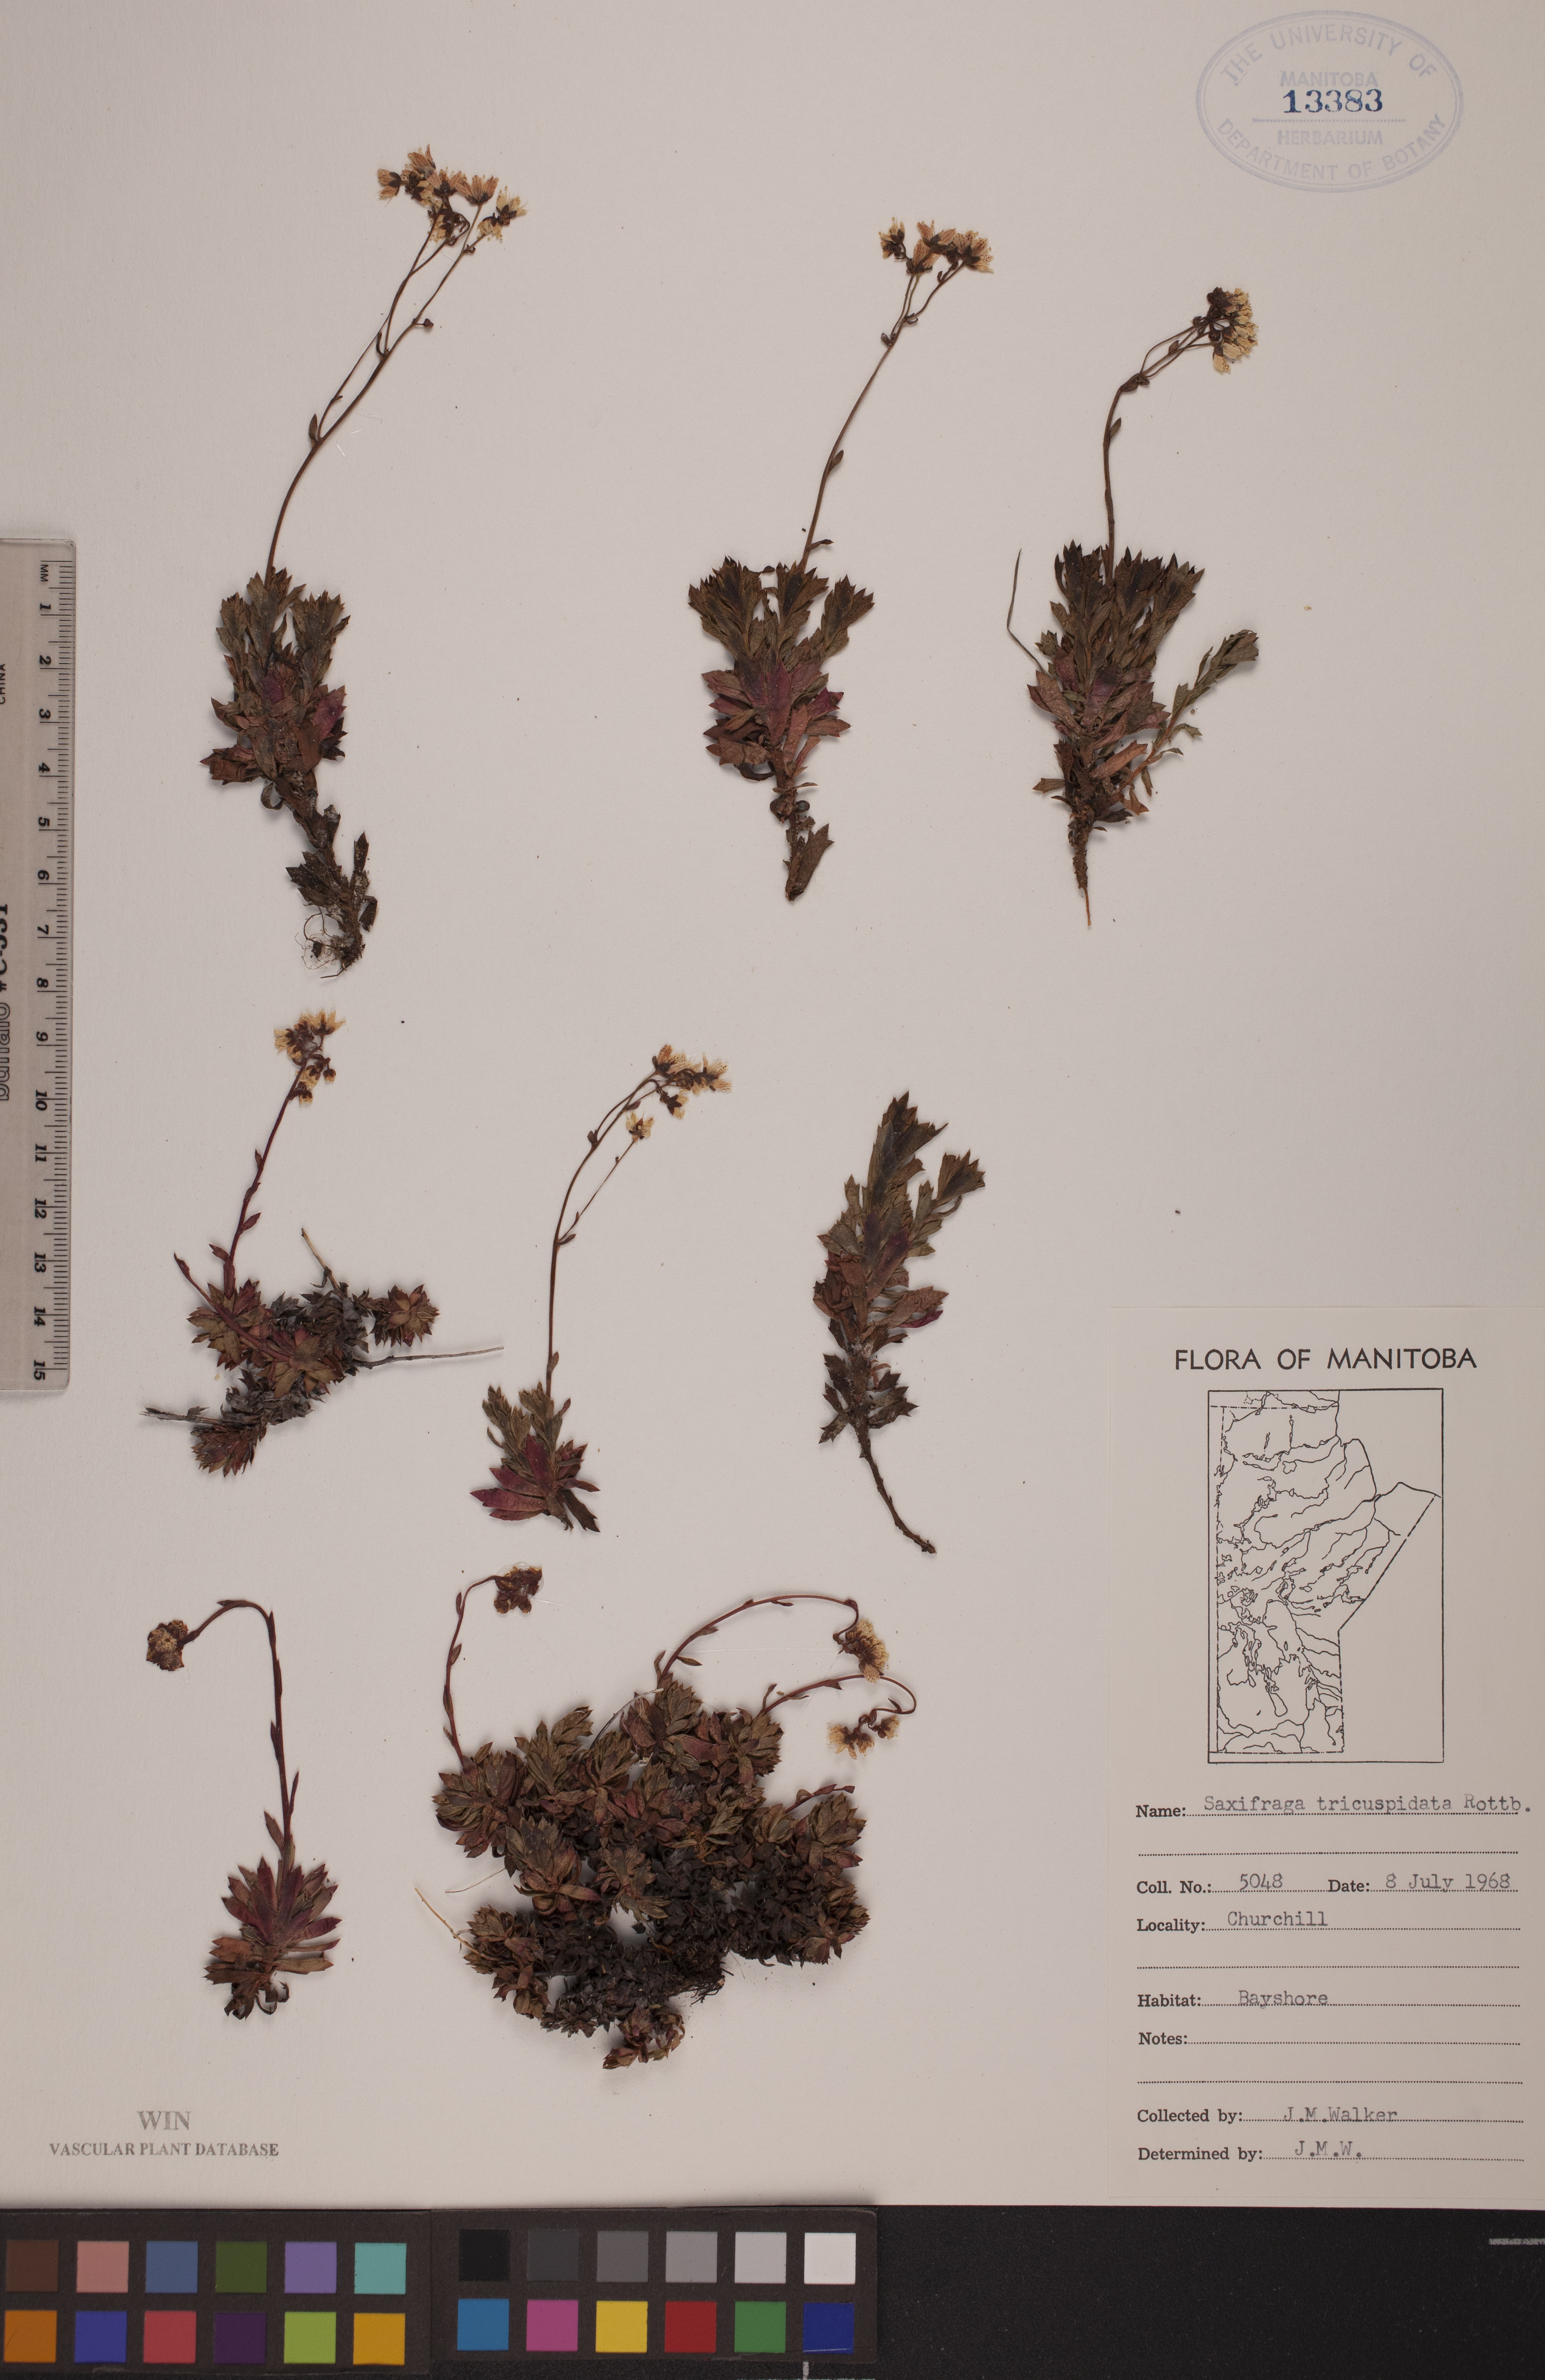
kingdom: Plantae
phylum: Tracheophyta
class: Magnoliopsida
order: Saxifragales
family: Saxifragaceae
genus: Saxifraga
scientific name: Saxifraga tricuspidata
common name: Prickly saxifrage
